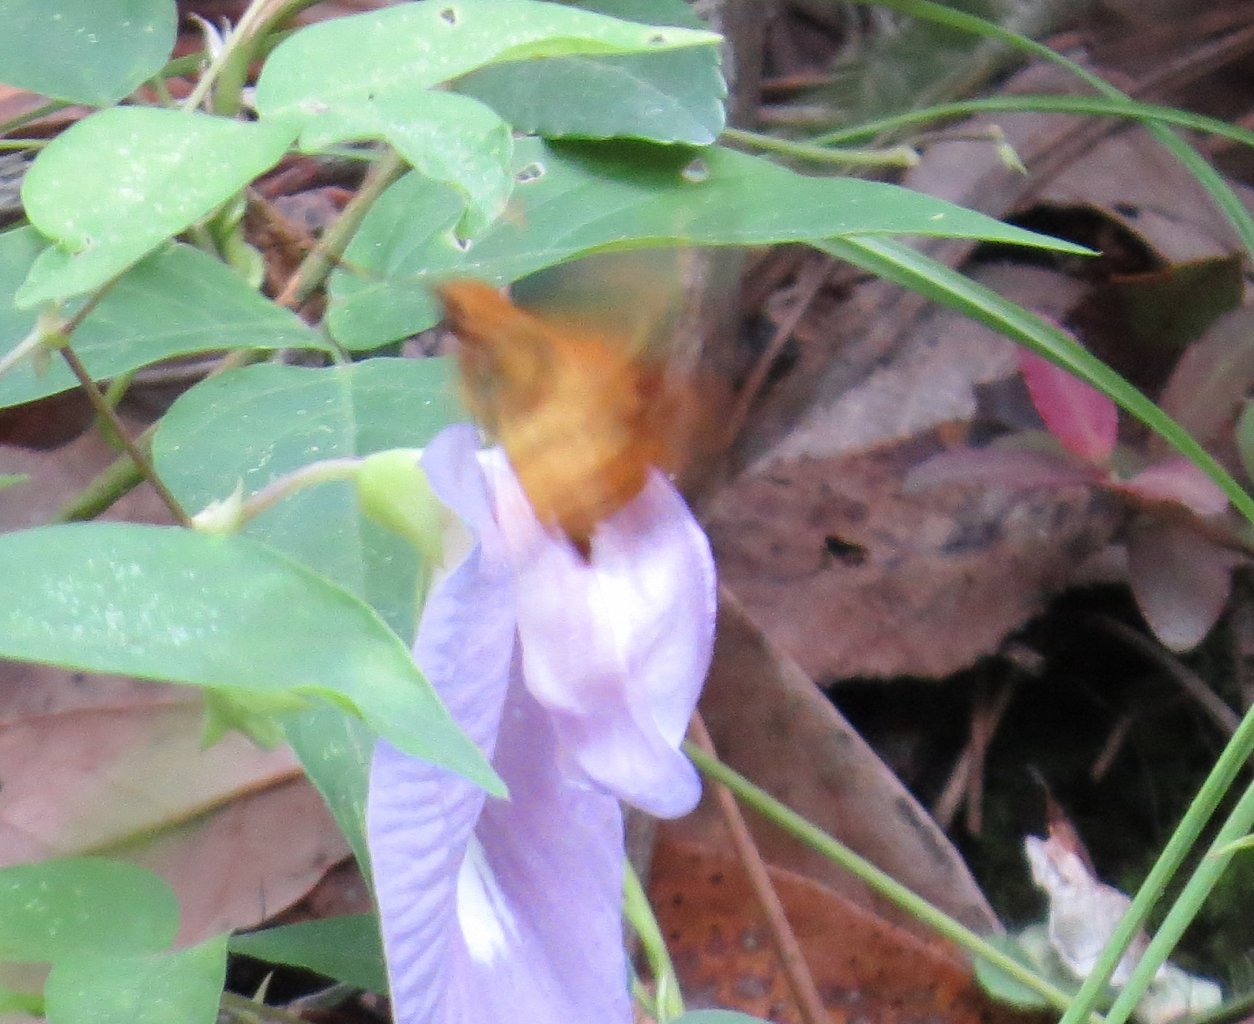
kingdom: Animalia
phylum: Arthropoda
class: Insecta
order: Lepidoptera
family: Hesperiidae
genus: Lon
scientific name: Lon zabulon
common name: Zabulon Skipper
